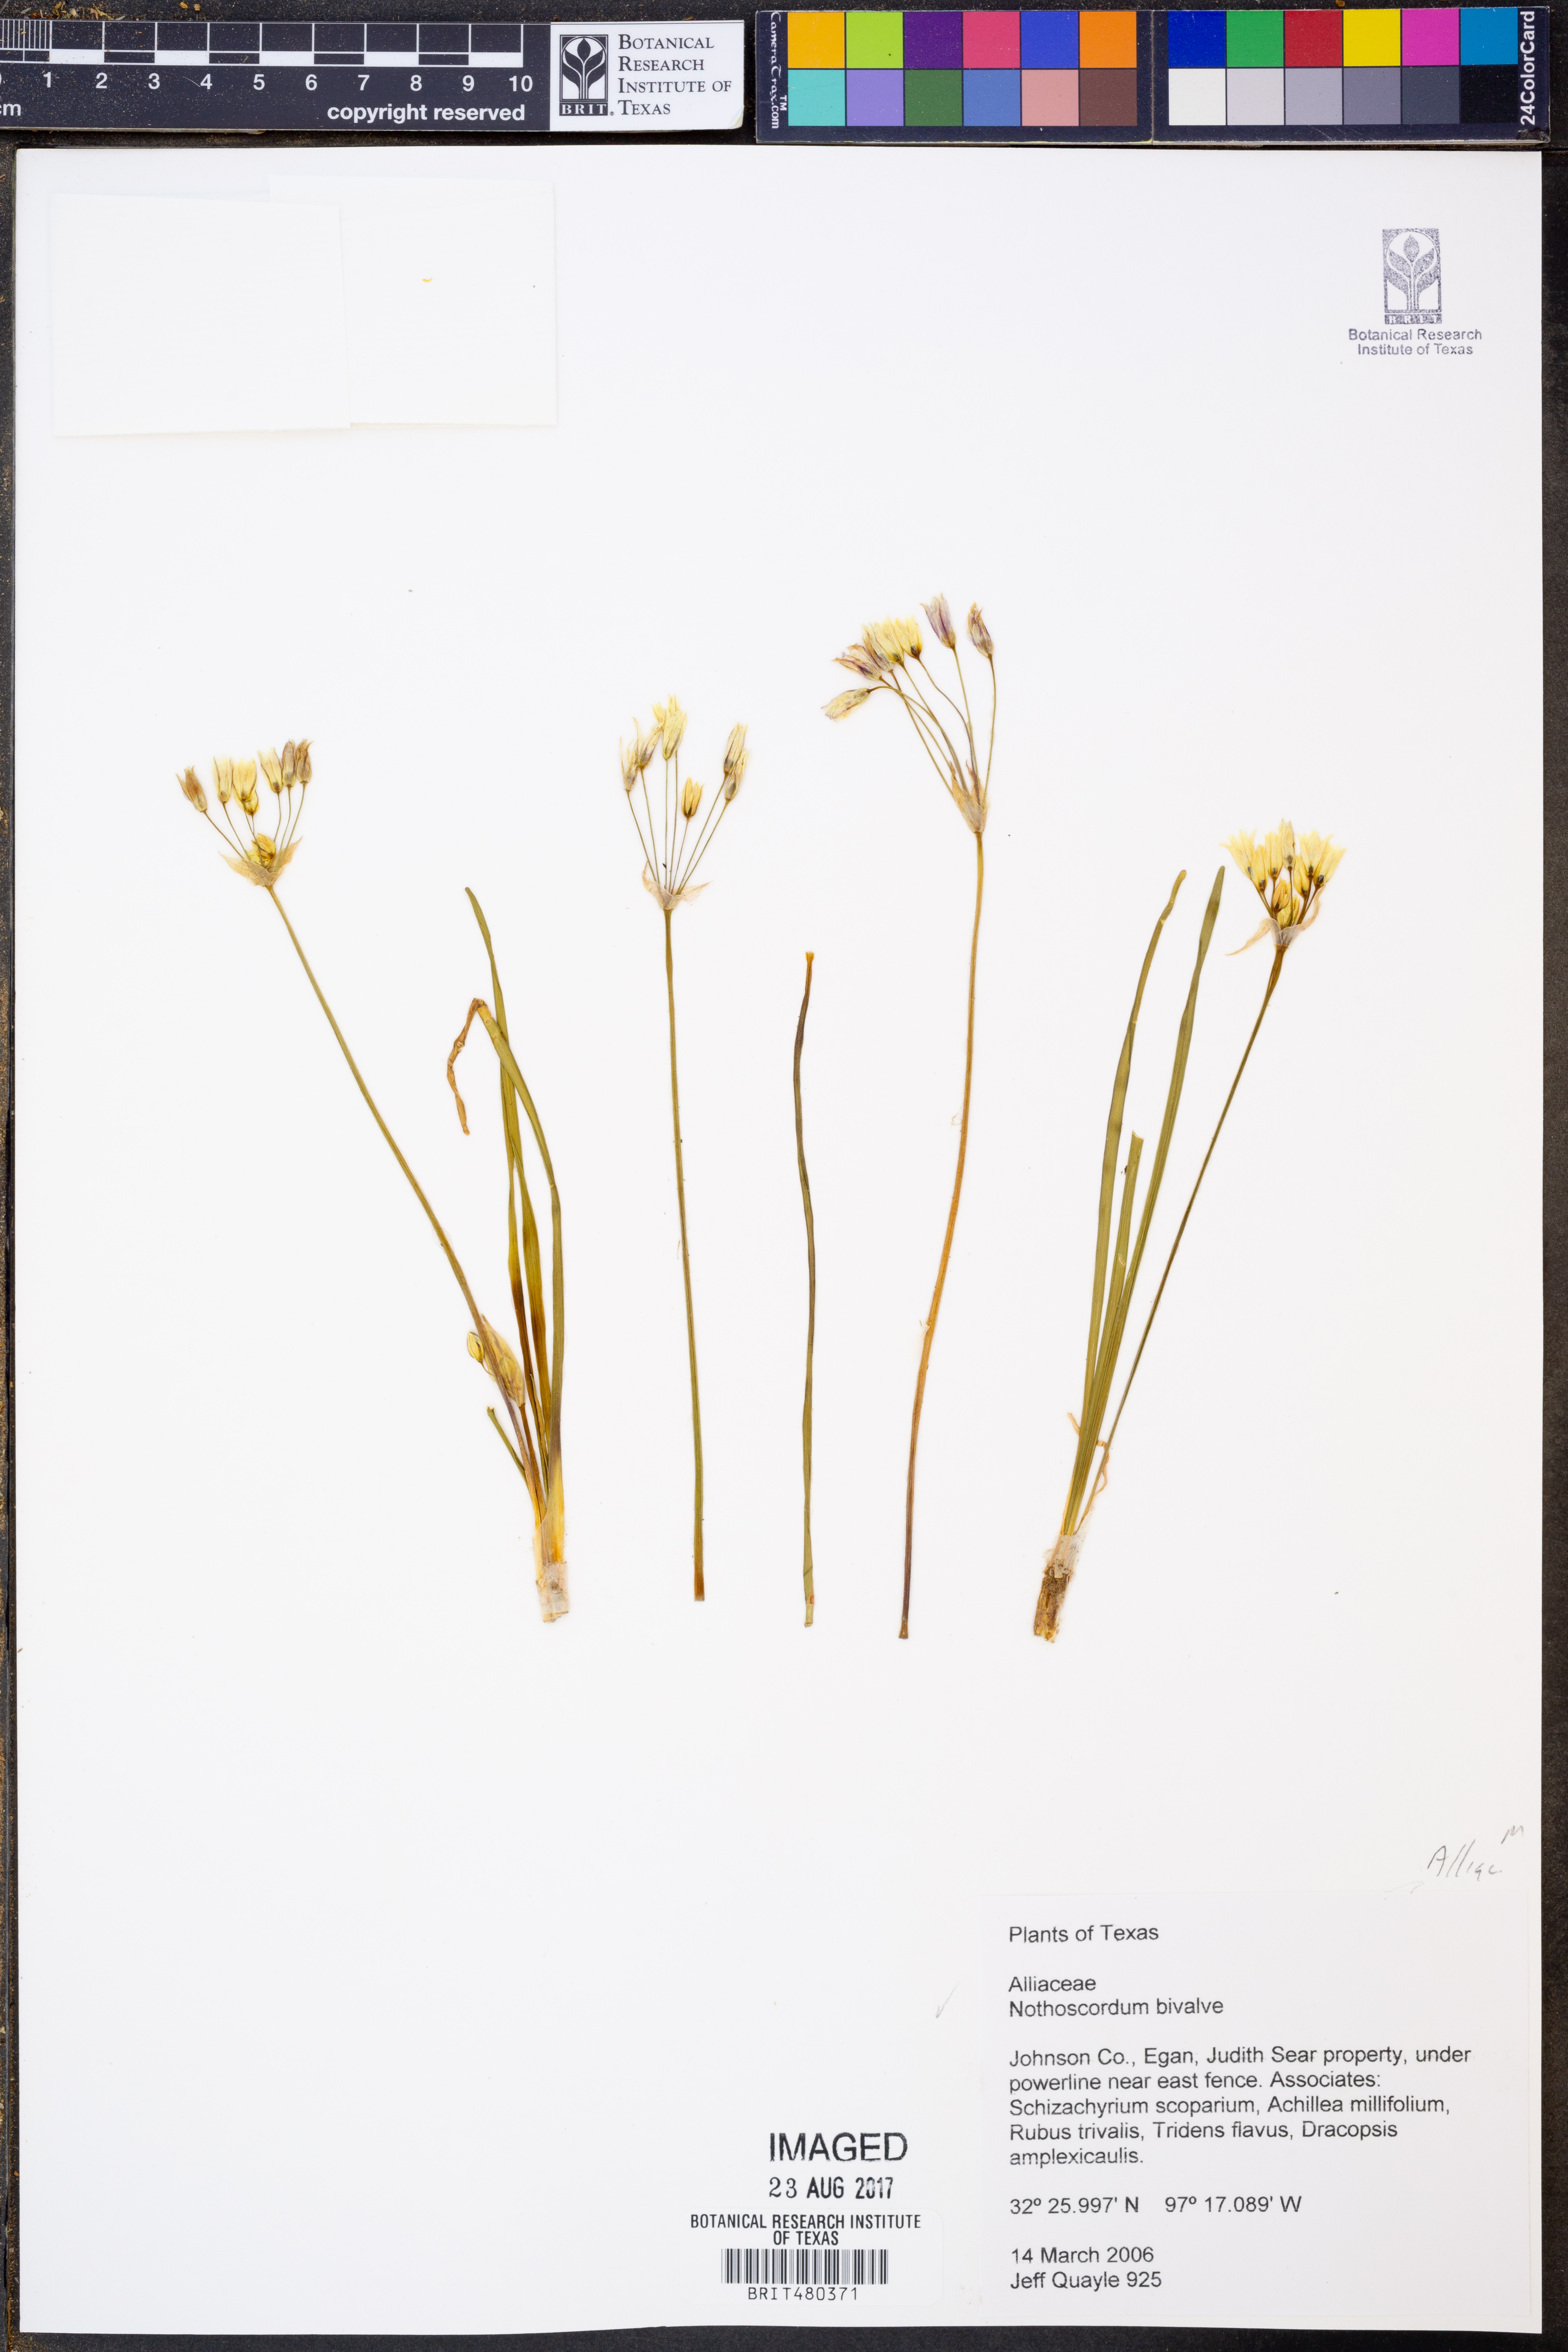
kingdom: Plantae
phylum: Tracheophyta
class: Liliopsida
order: Asparagales
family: Amaryllidaceae
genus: Nothoscordum
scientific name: Nothoscordum bivalve
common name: Crow-poison
